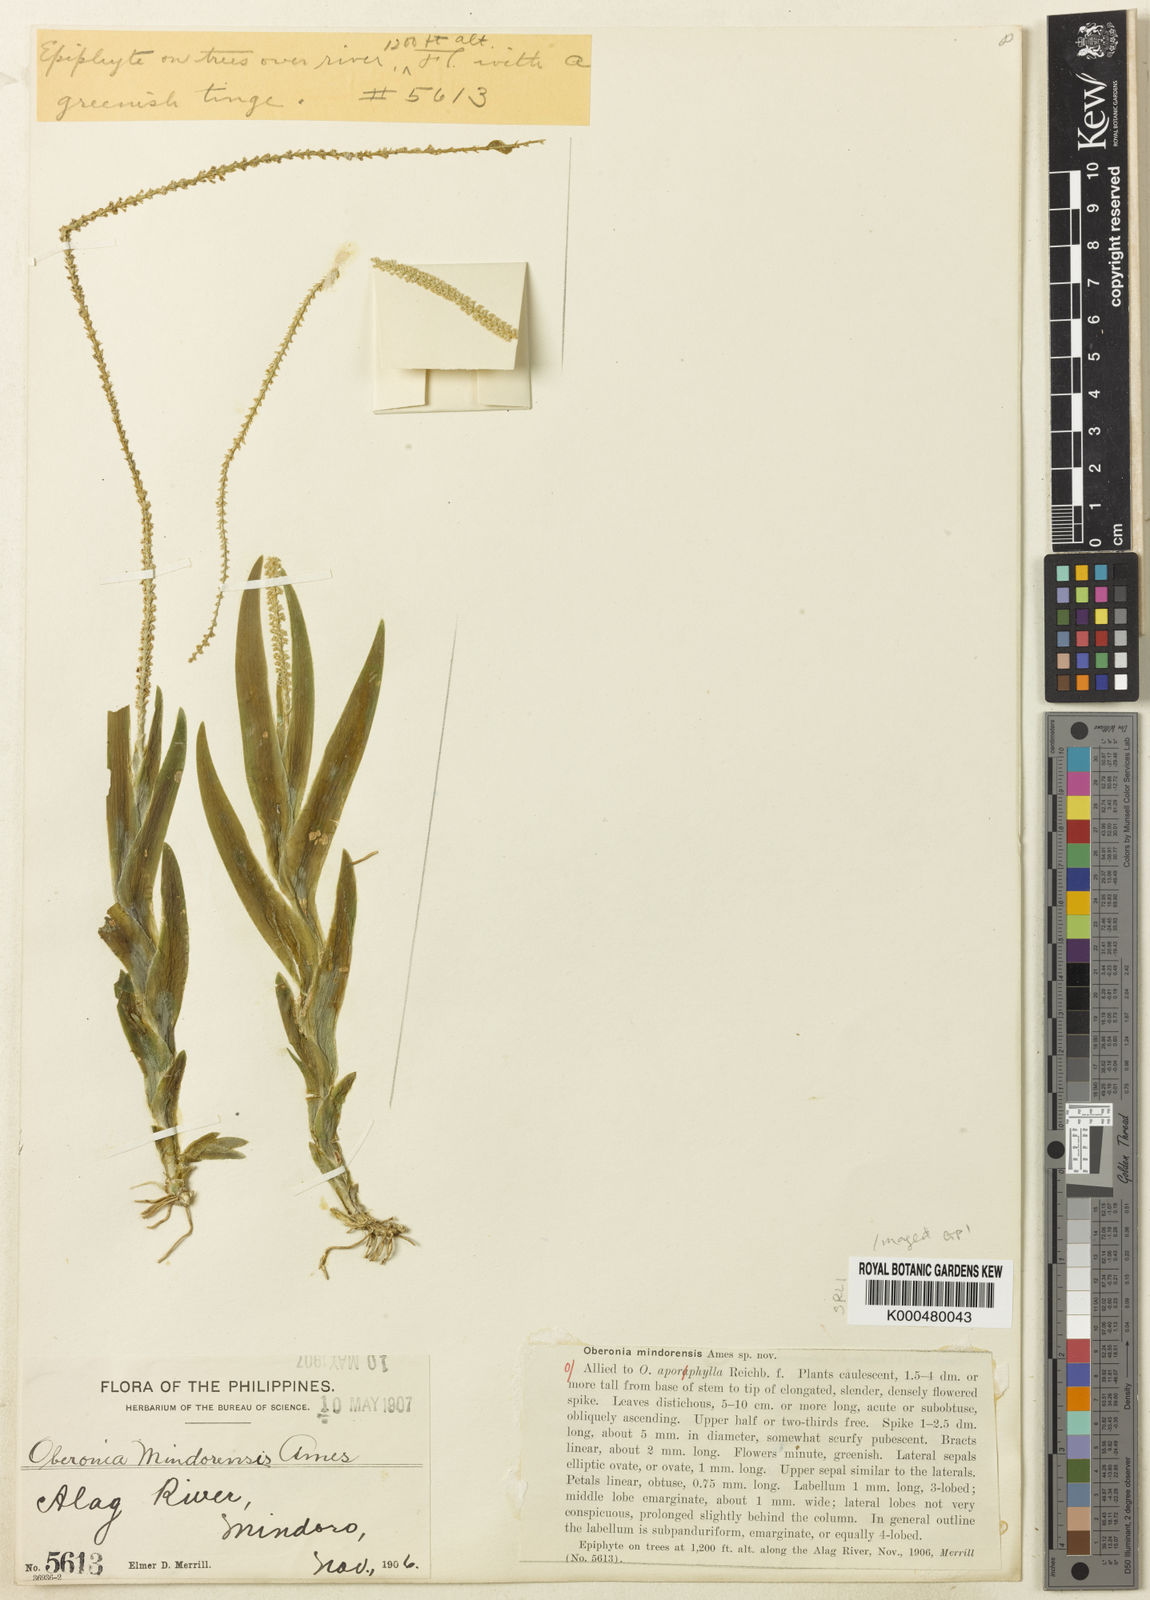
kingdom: Plantae
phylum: Tracheophyta
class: Liliopsida
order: Asparagales
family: Orchidaceae
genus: Oberonia
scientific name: Oberonia mindorensis
